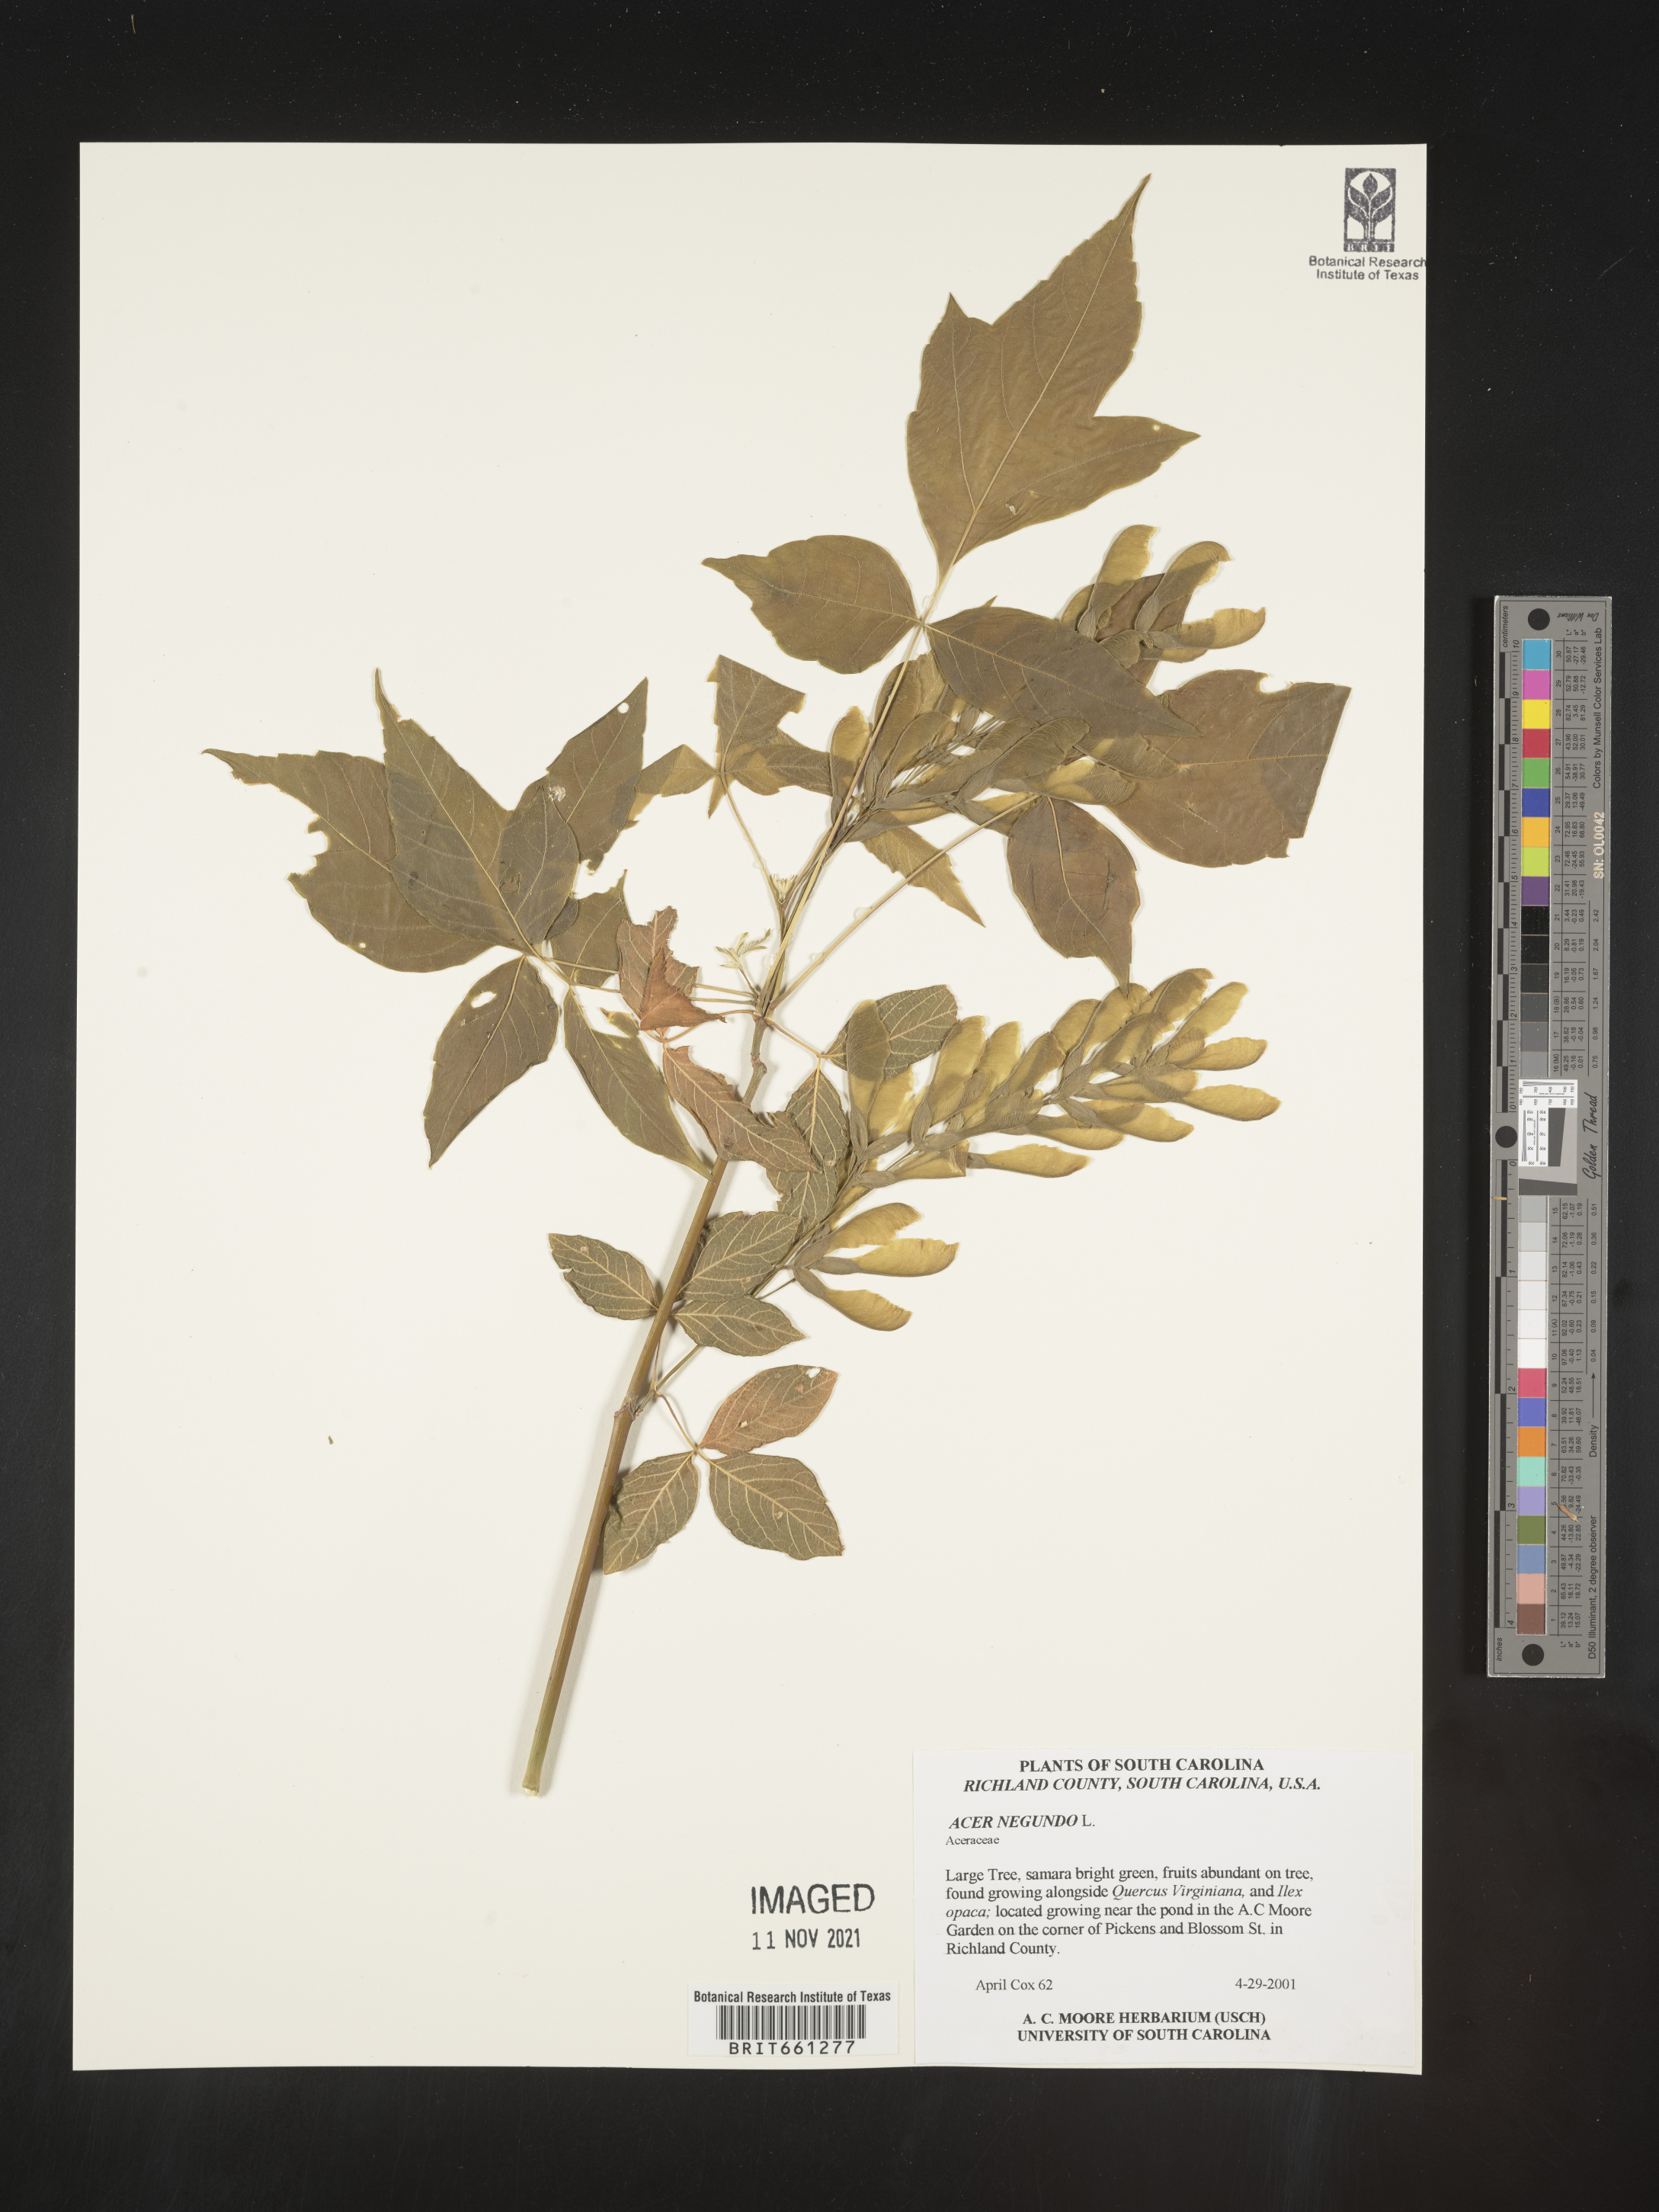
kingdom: Plantae
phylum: Tracheophyta
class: Magnoliopsida
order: Sapindales
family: Sapindaceae
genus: Acer
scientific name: Acer negundo
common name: Ashleaf maple
